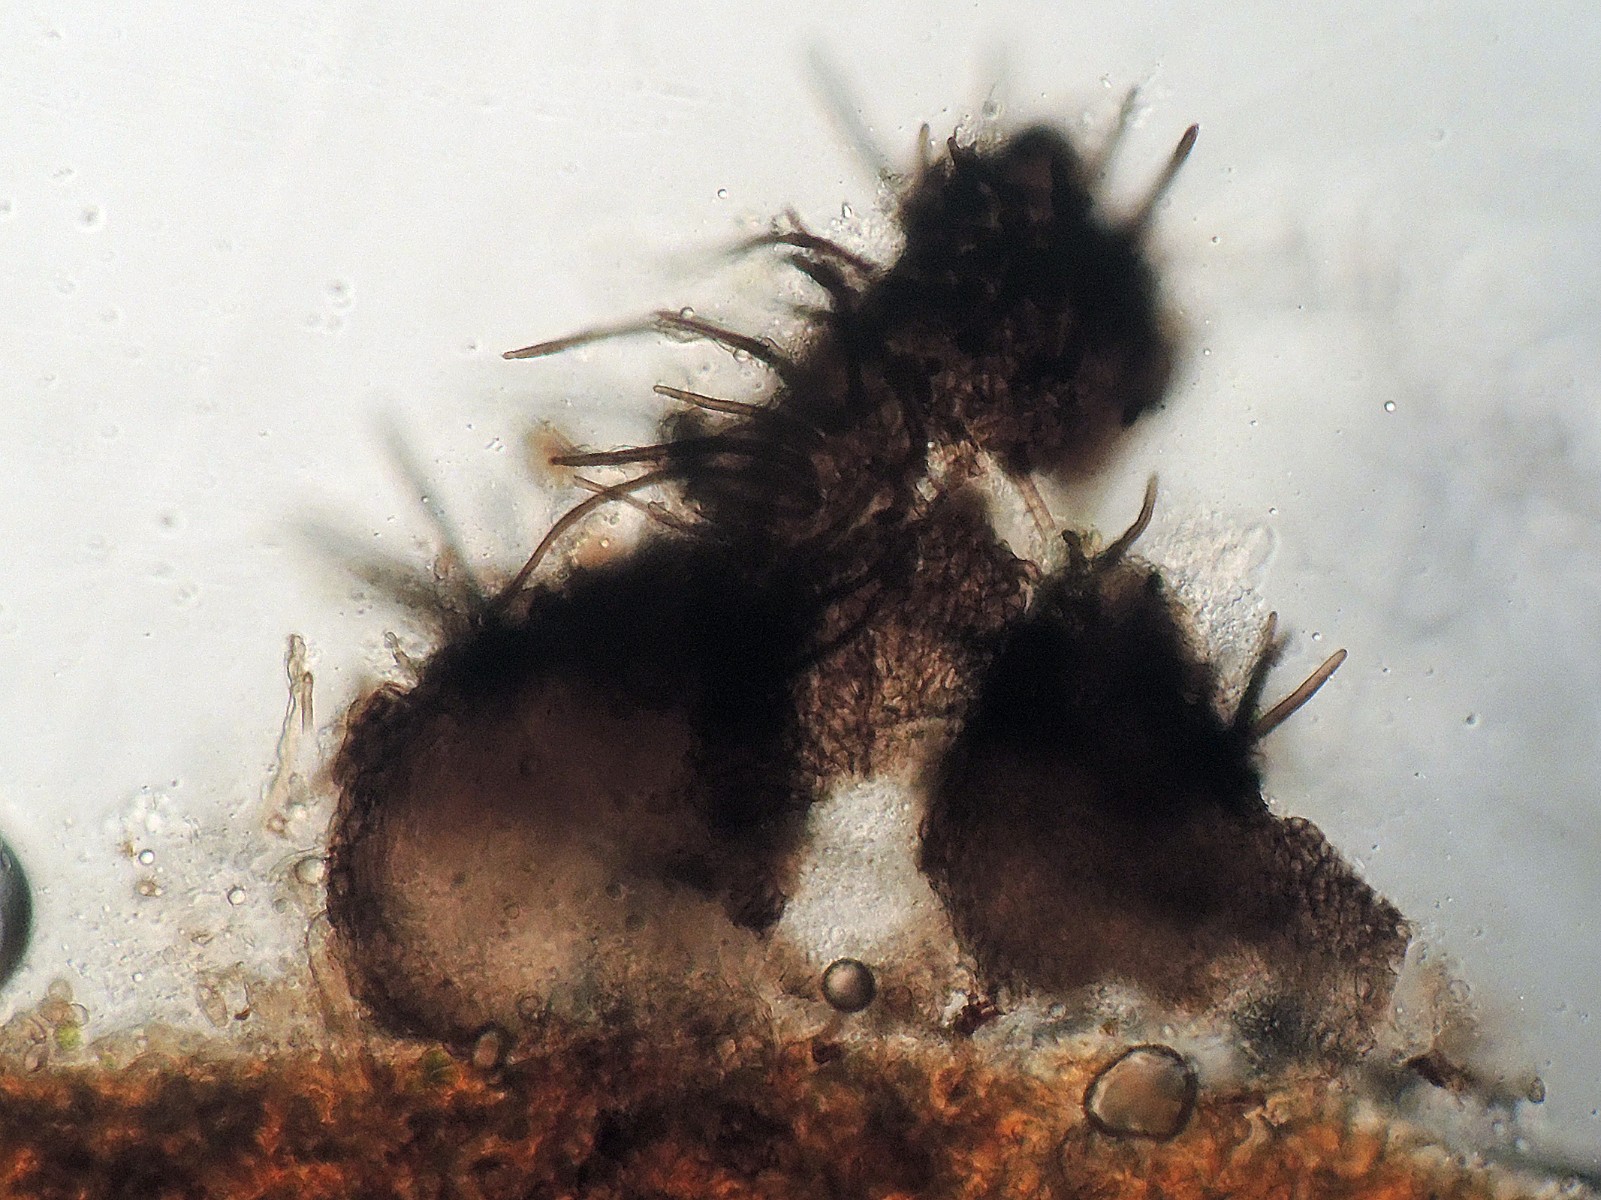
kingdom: Fungi
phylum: Ascomycota
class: Eurotiomycetes
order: Chaetothyriales
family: Herpotrichiellaceae
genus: Capronia
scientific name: Capronia
